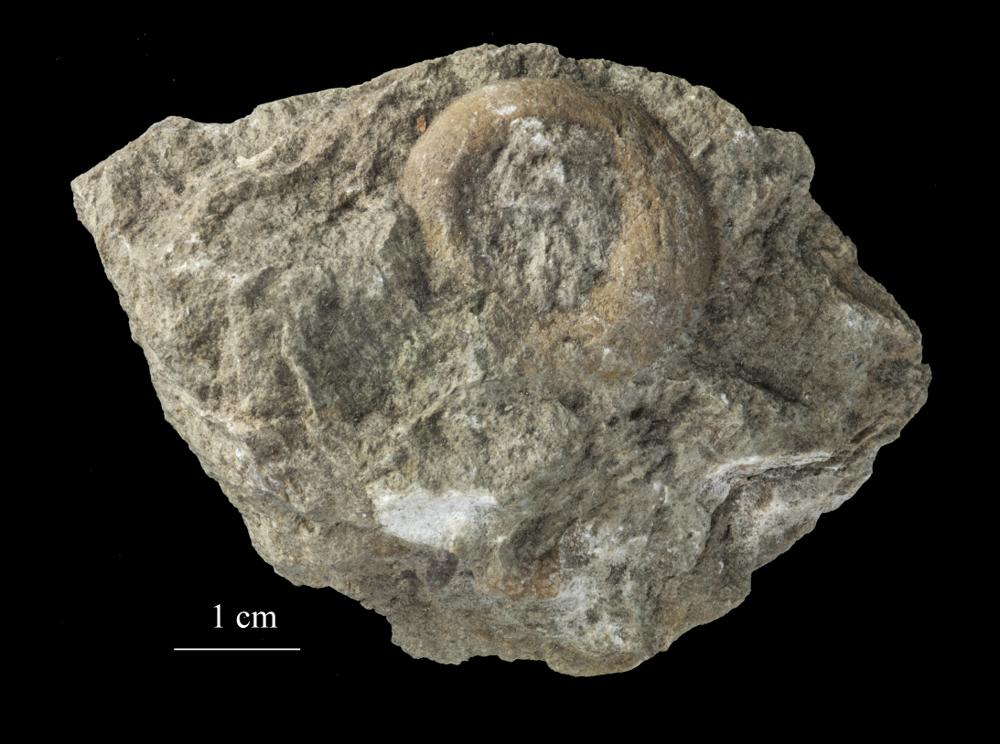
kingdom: Animalia
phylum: Mollusca
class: Gastropoda
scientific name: Gastropoda
